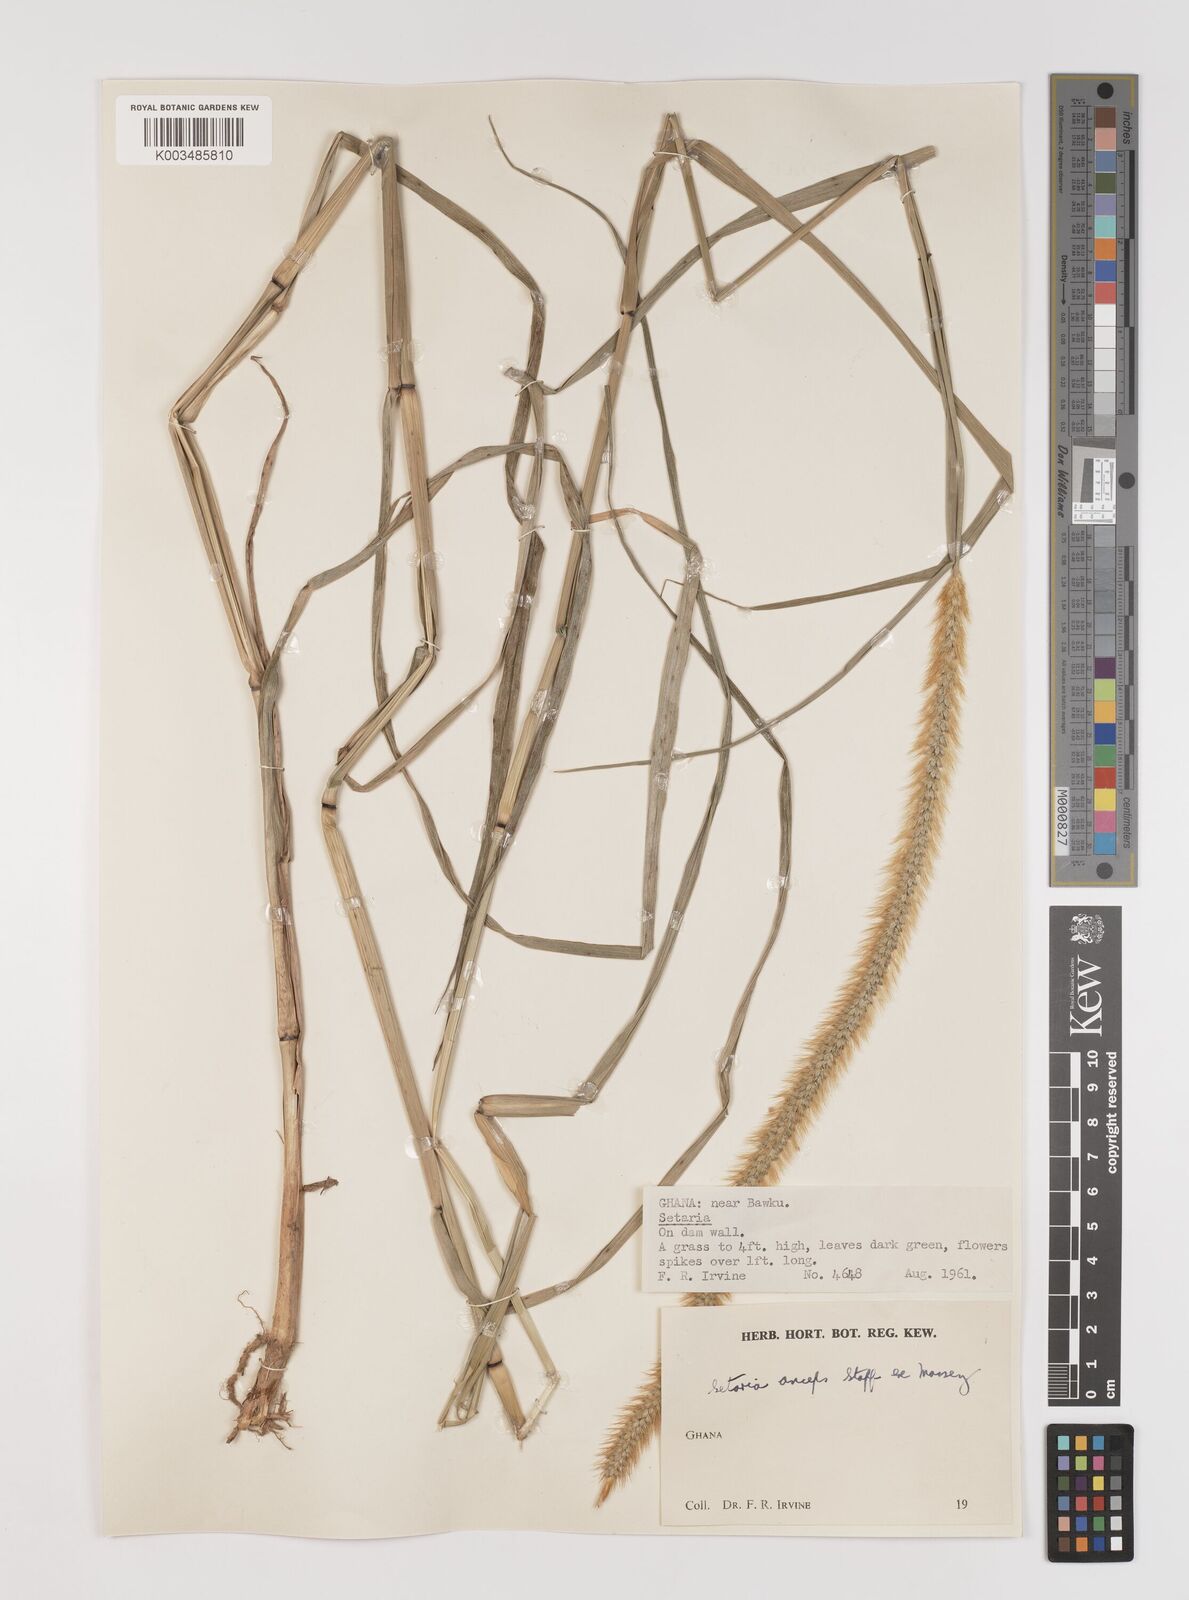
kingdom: Plantae
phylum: Tracheophyta
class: Liliopsida
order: Poales
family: Poaceae
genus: Setaria
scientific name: Setaria sphacelata
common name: African bristlegrass
